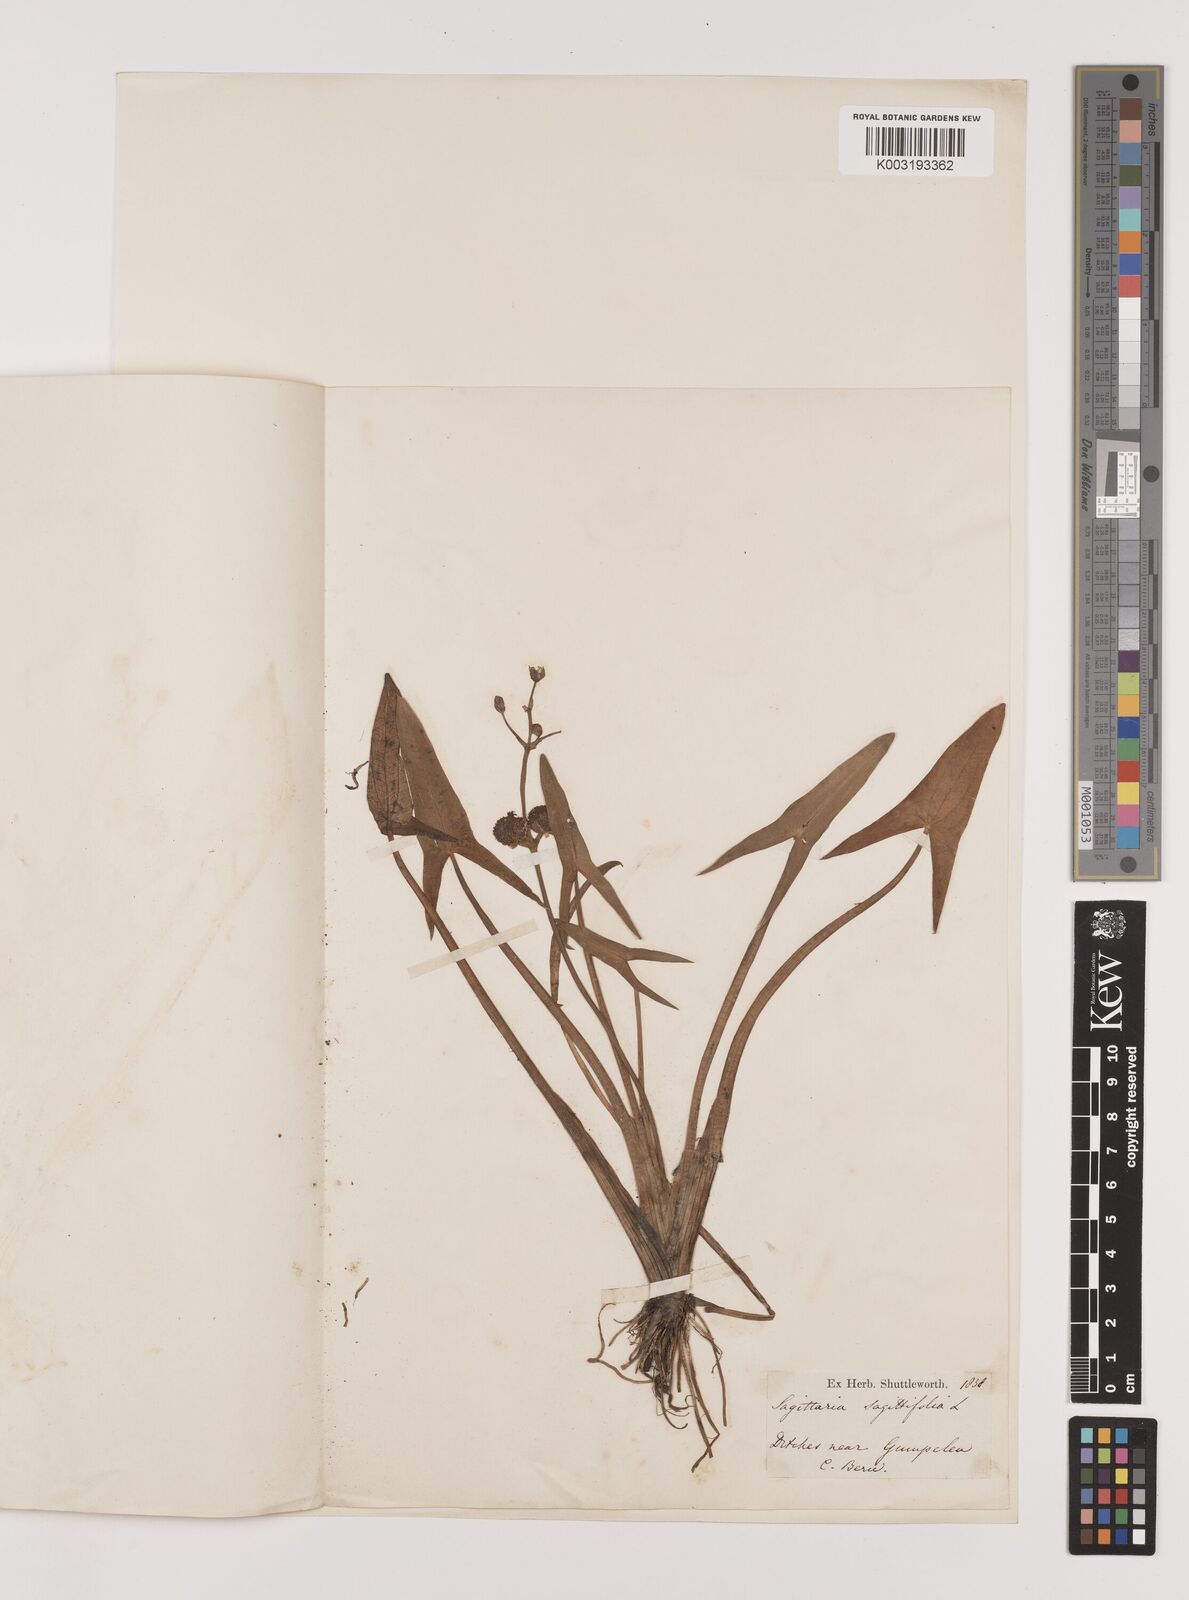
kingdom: Plantae
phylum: Tracheophyta
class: Liliopsida
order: Alismatales
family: Alismataceae
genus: Sagittaria
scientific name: Sagittaria sagittifolia
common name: Arrowhead
